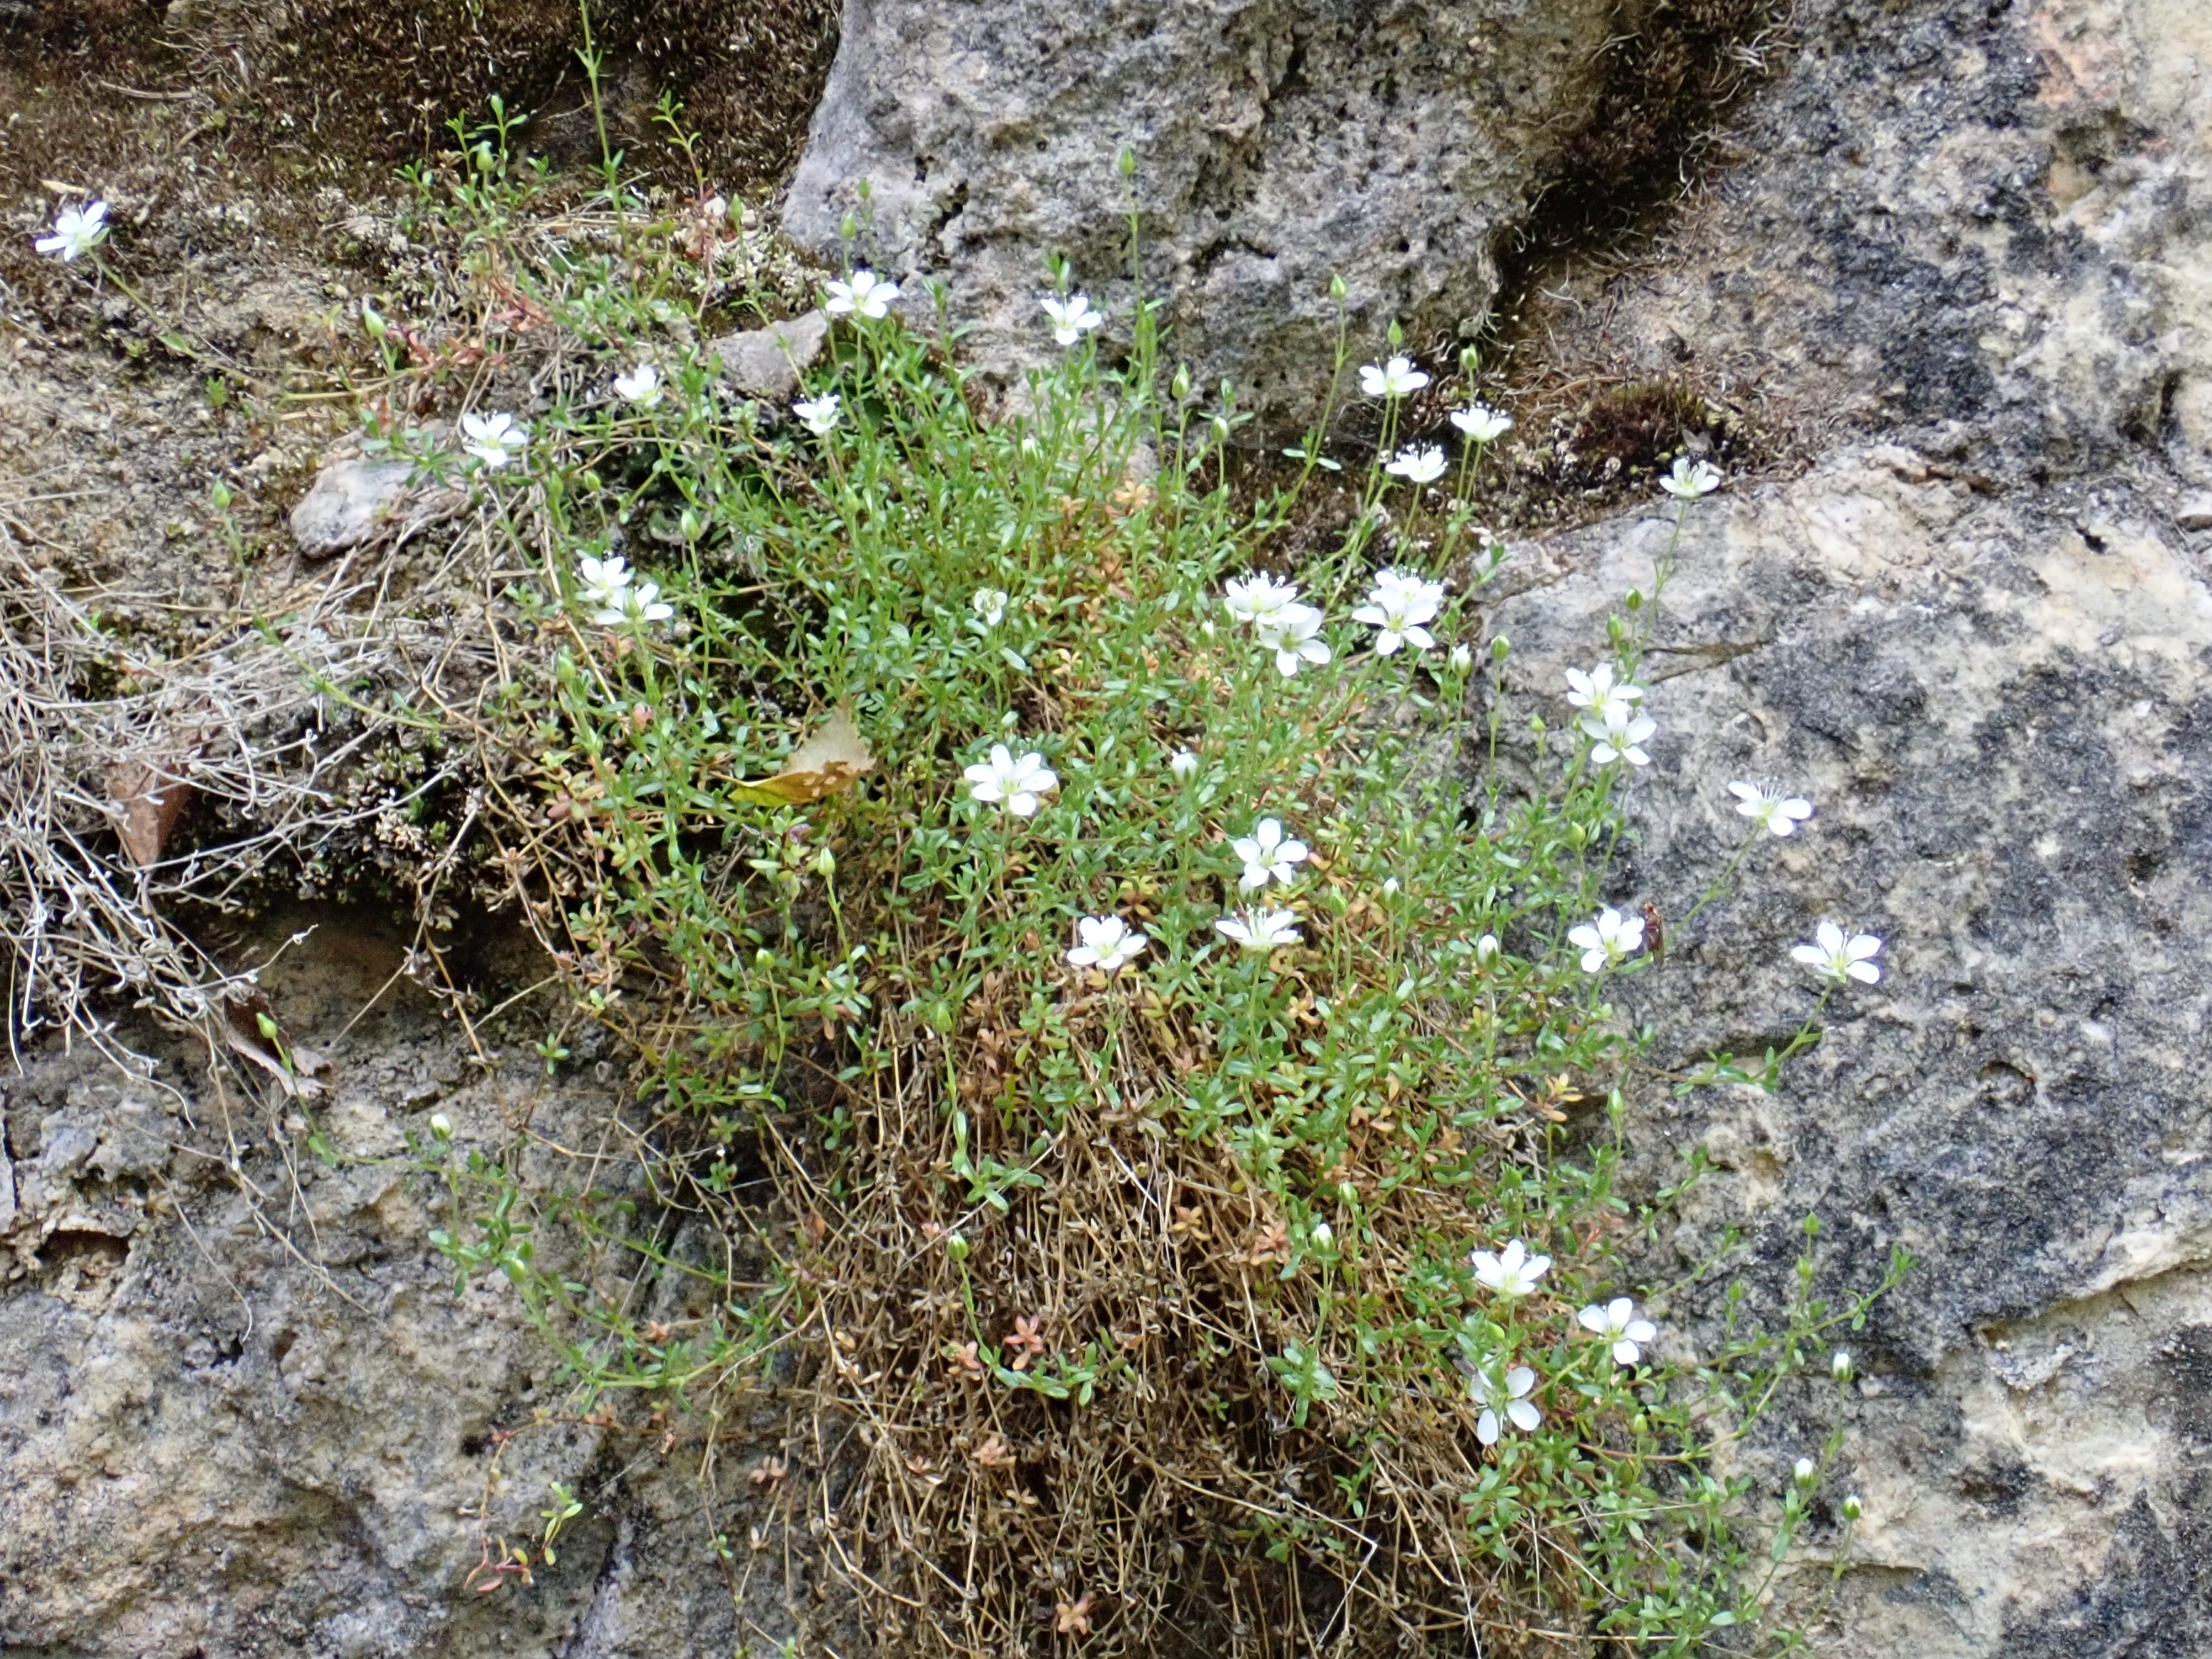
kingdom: Plantae
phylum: Tracheophyta
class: Magnoliopsida
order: Caryophyllales
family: Caryophyllaceae
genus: Arenaria
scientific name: Arenaria pseudofrigida
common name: Tundra sandwort
